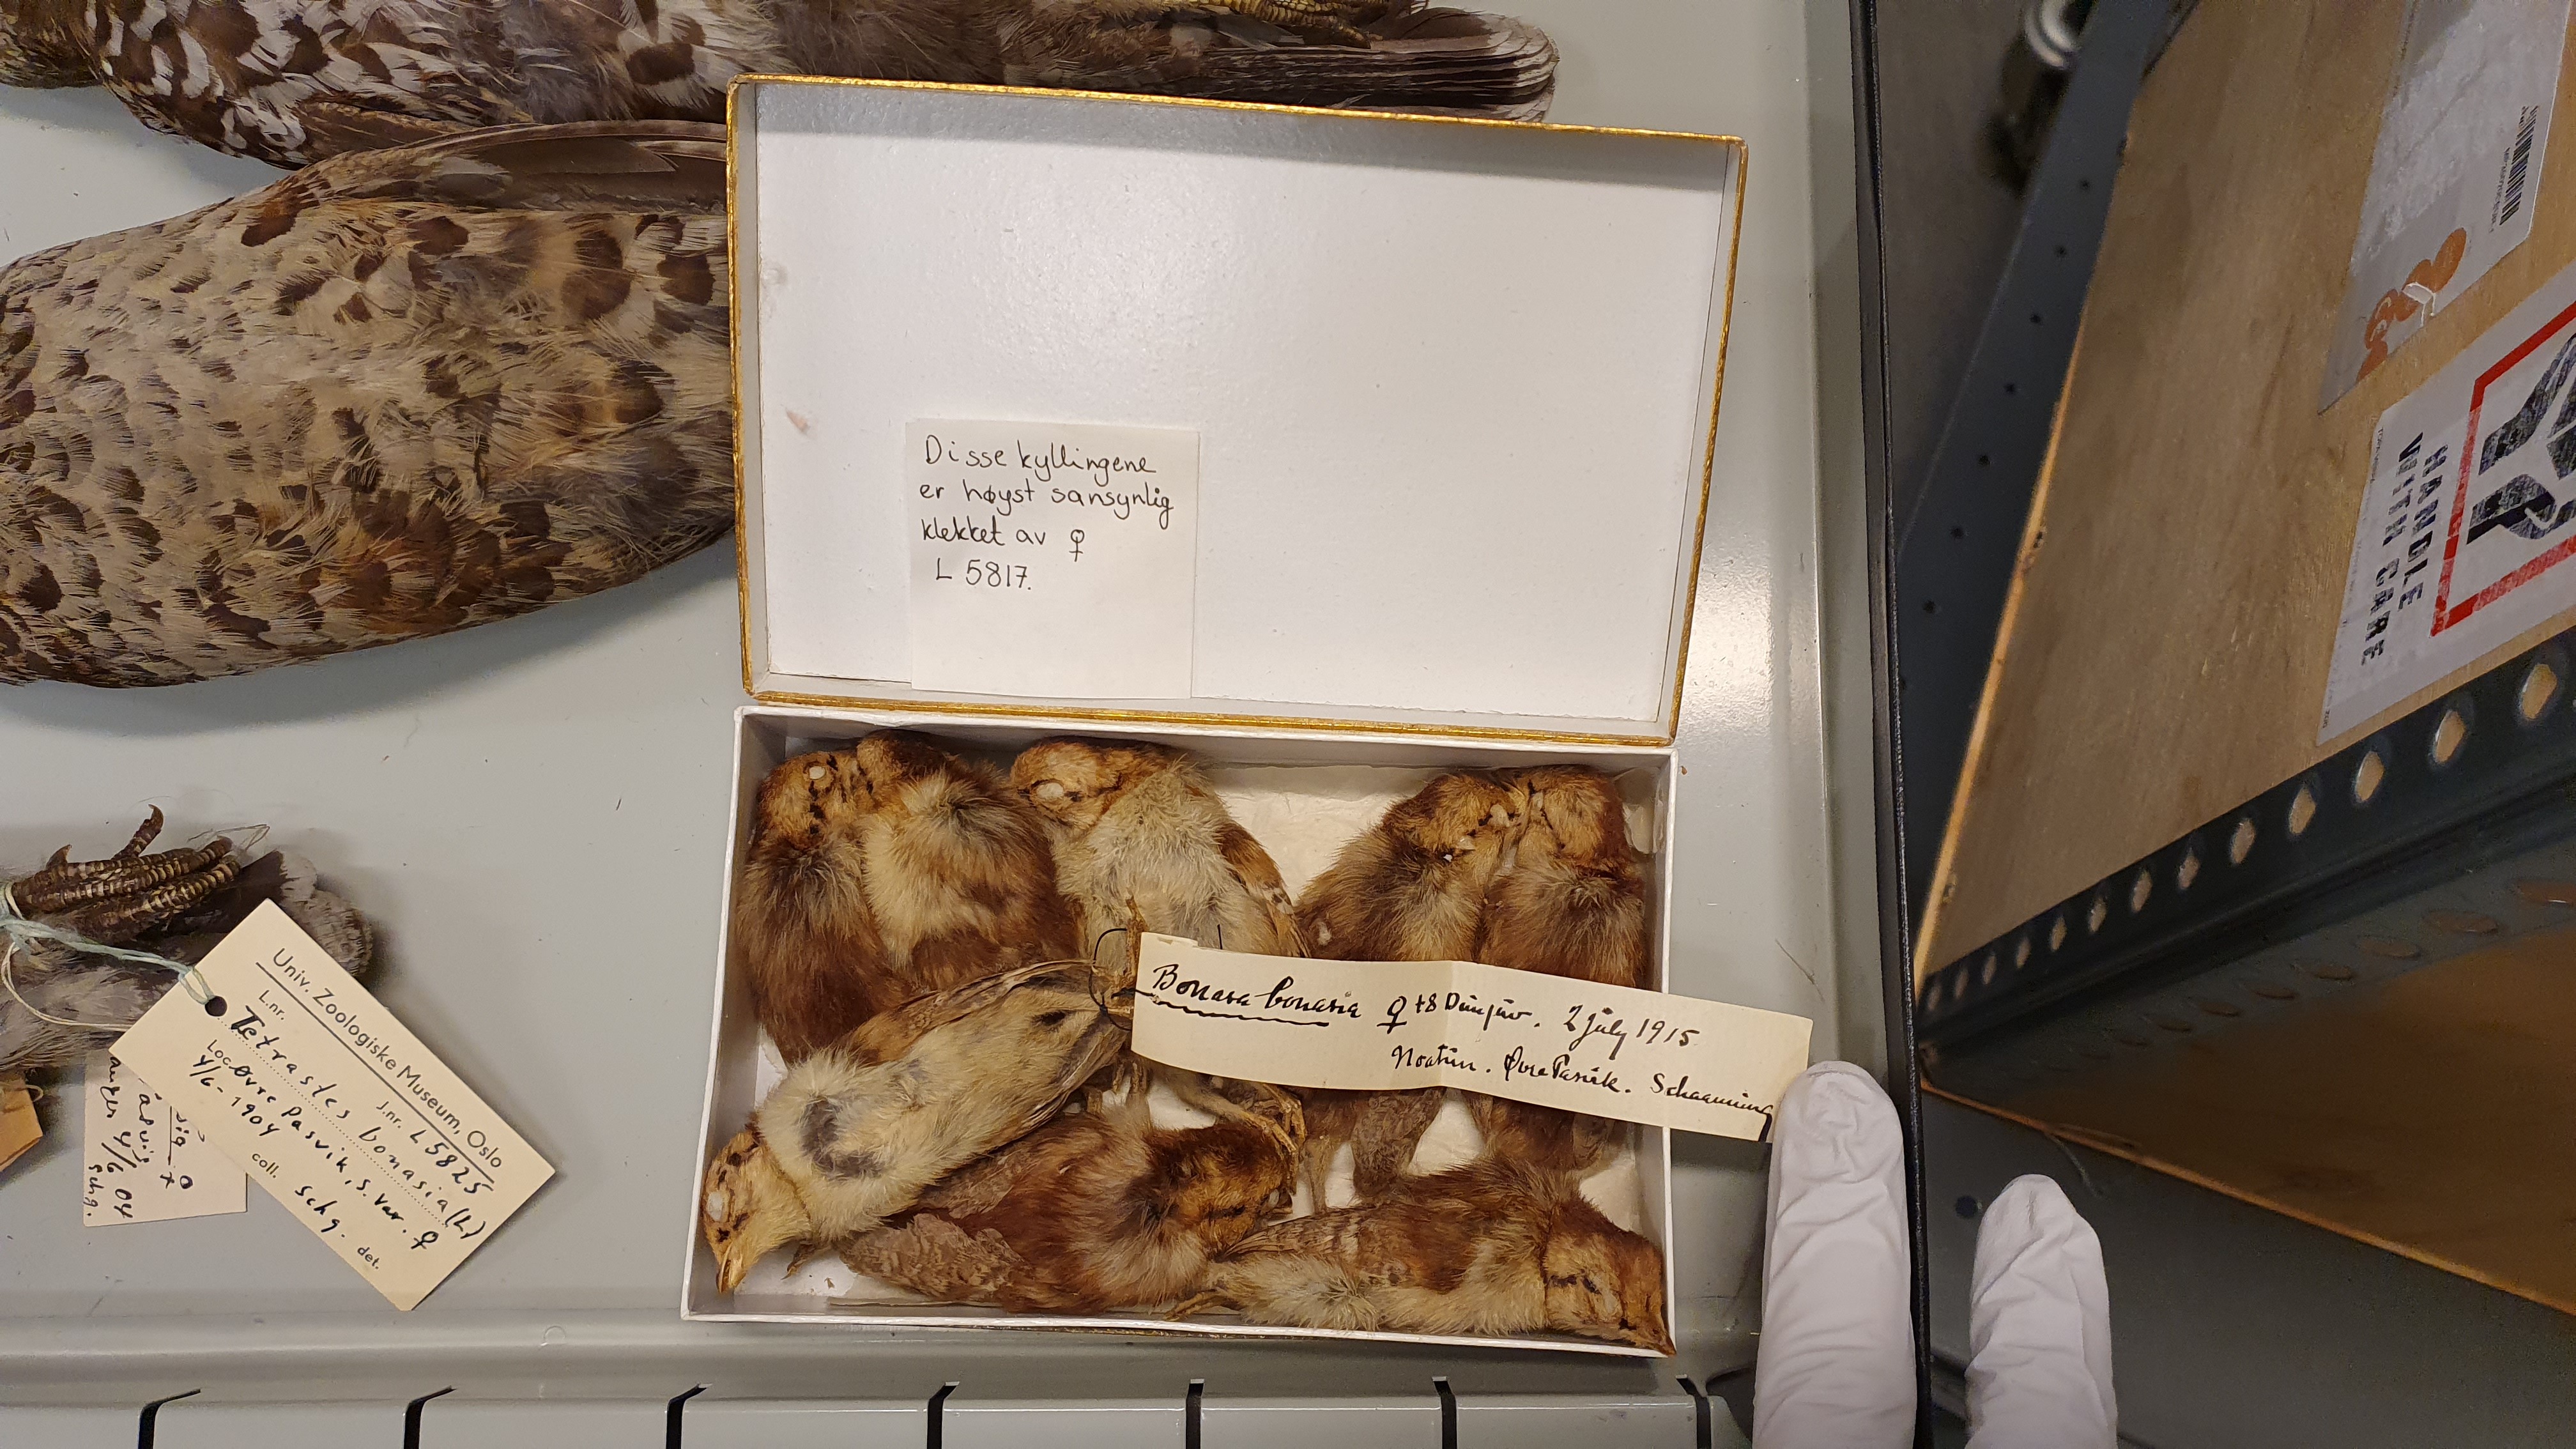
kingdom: Animalia
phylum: Chordata
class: Aves
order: Galliformes
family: Phasianidae
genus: Tetrastes
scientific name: Tetrastes bonasia
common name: Hazel grouse
